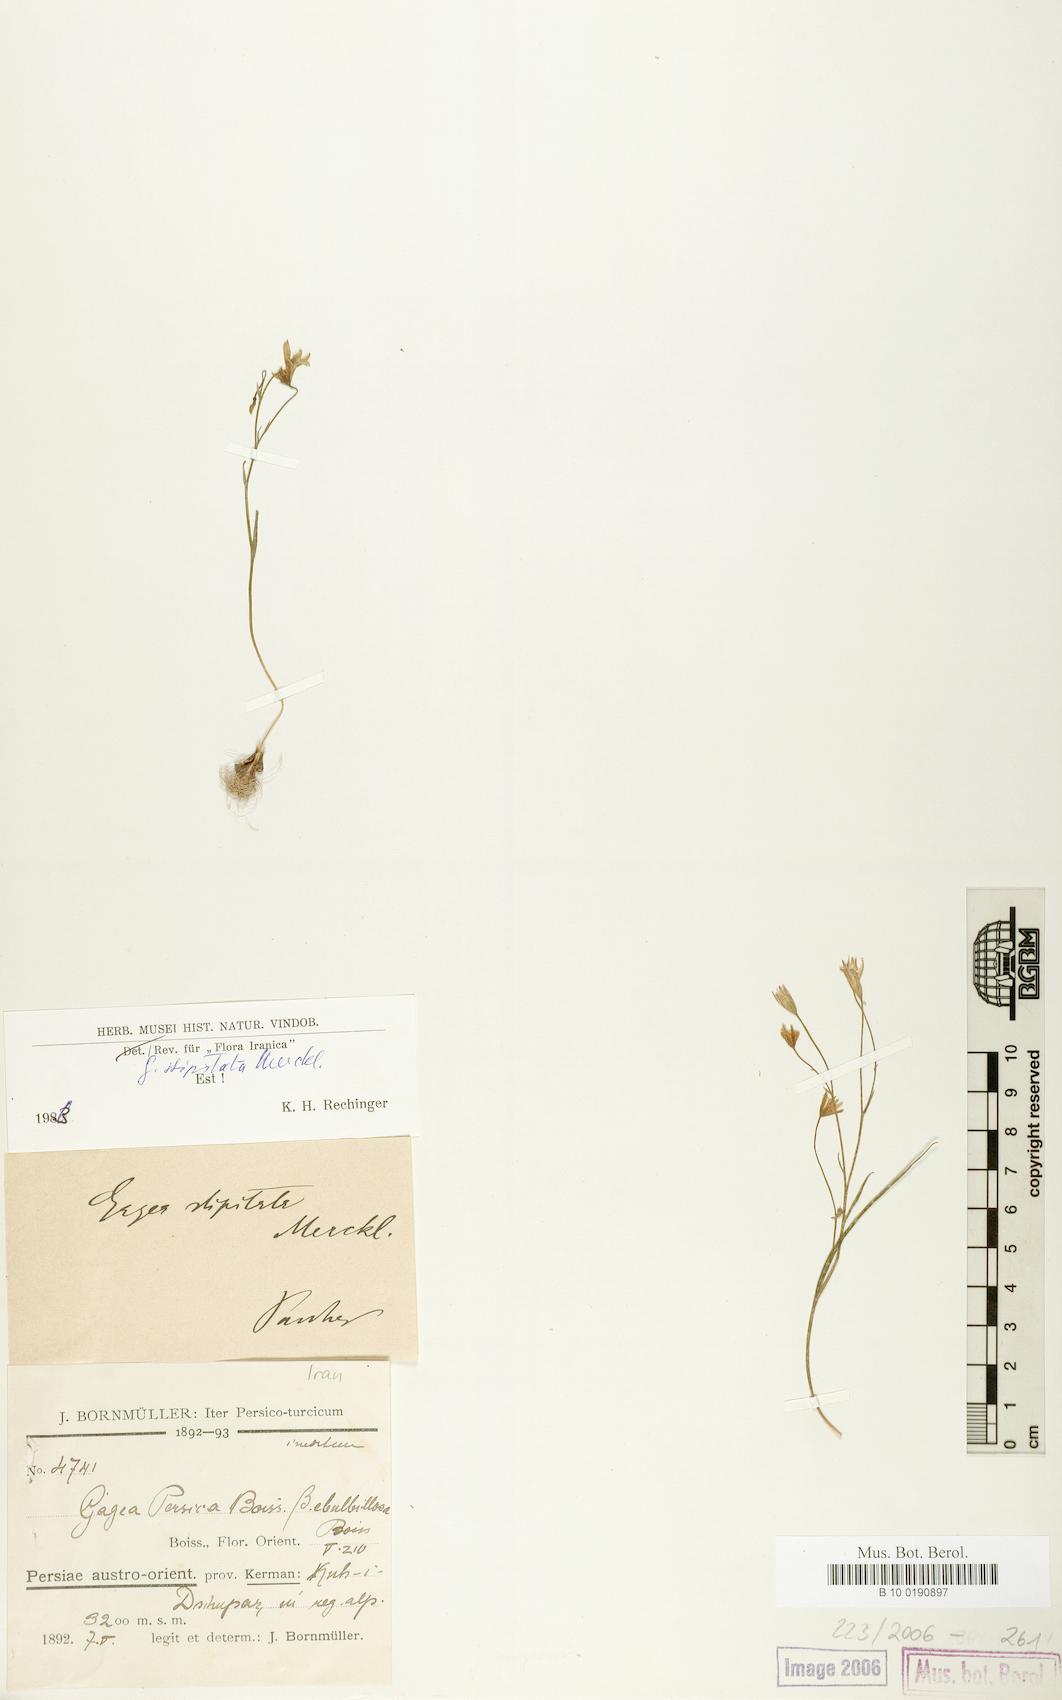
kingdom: Plantae
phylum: Tracheophyta
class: Liliopsida
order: Liliales
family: Liliaceae
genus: Gagea
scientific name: Gagea kunawurensis
